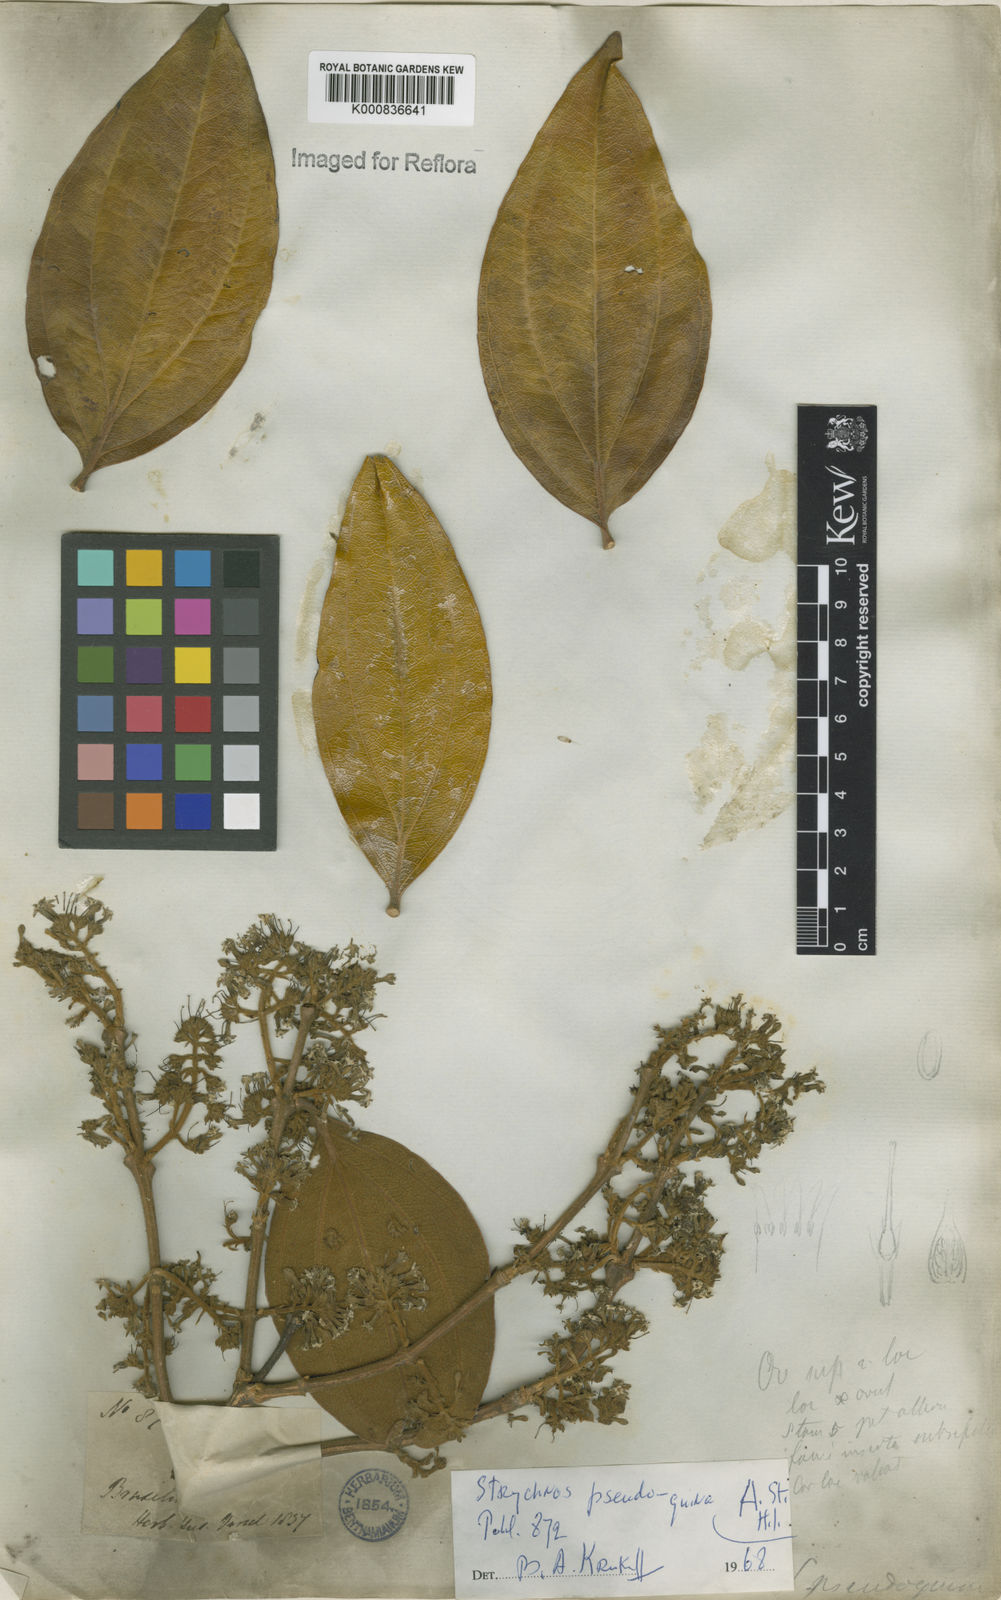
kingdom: Plantae
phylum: Tracheophyta
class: Magnoliopsida
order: Gentianales
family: Loganiaceae
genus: Strychnos
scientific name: Strychnos pseudoquina
